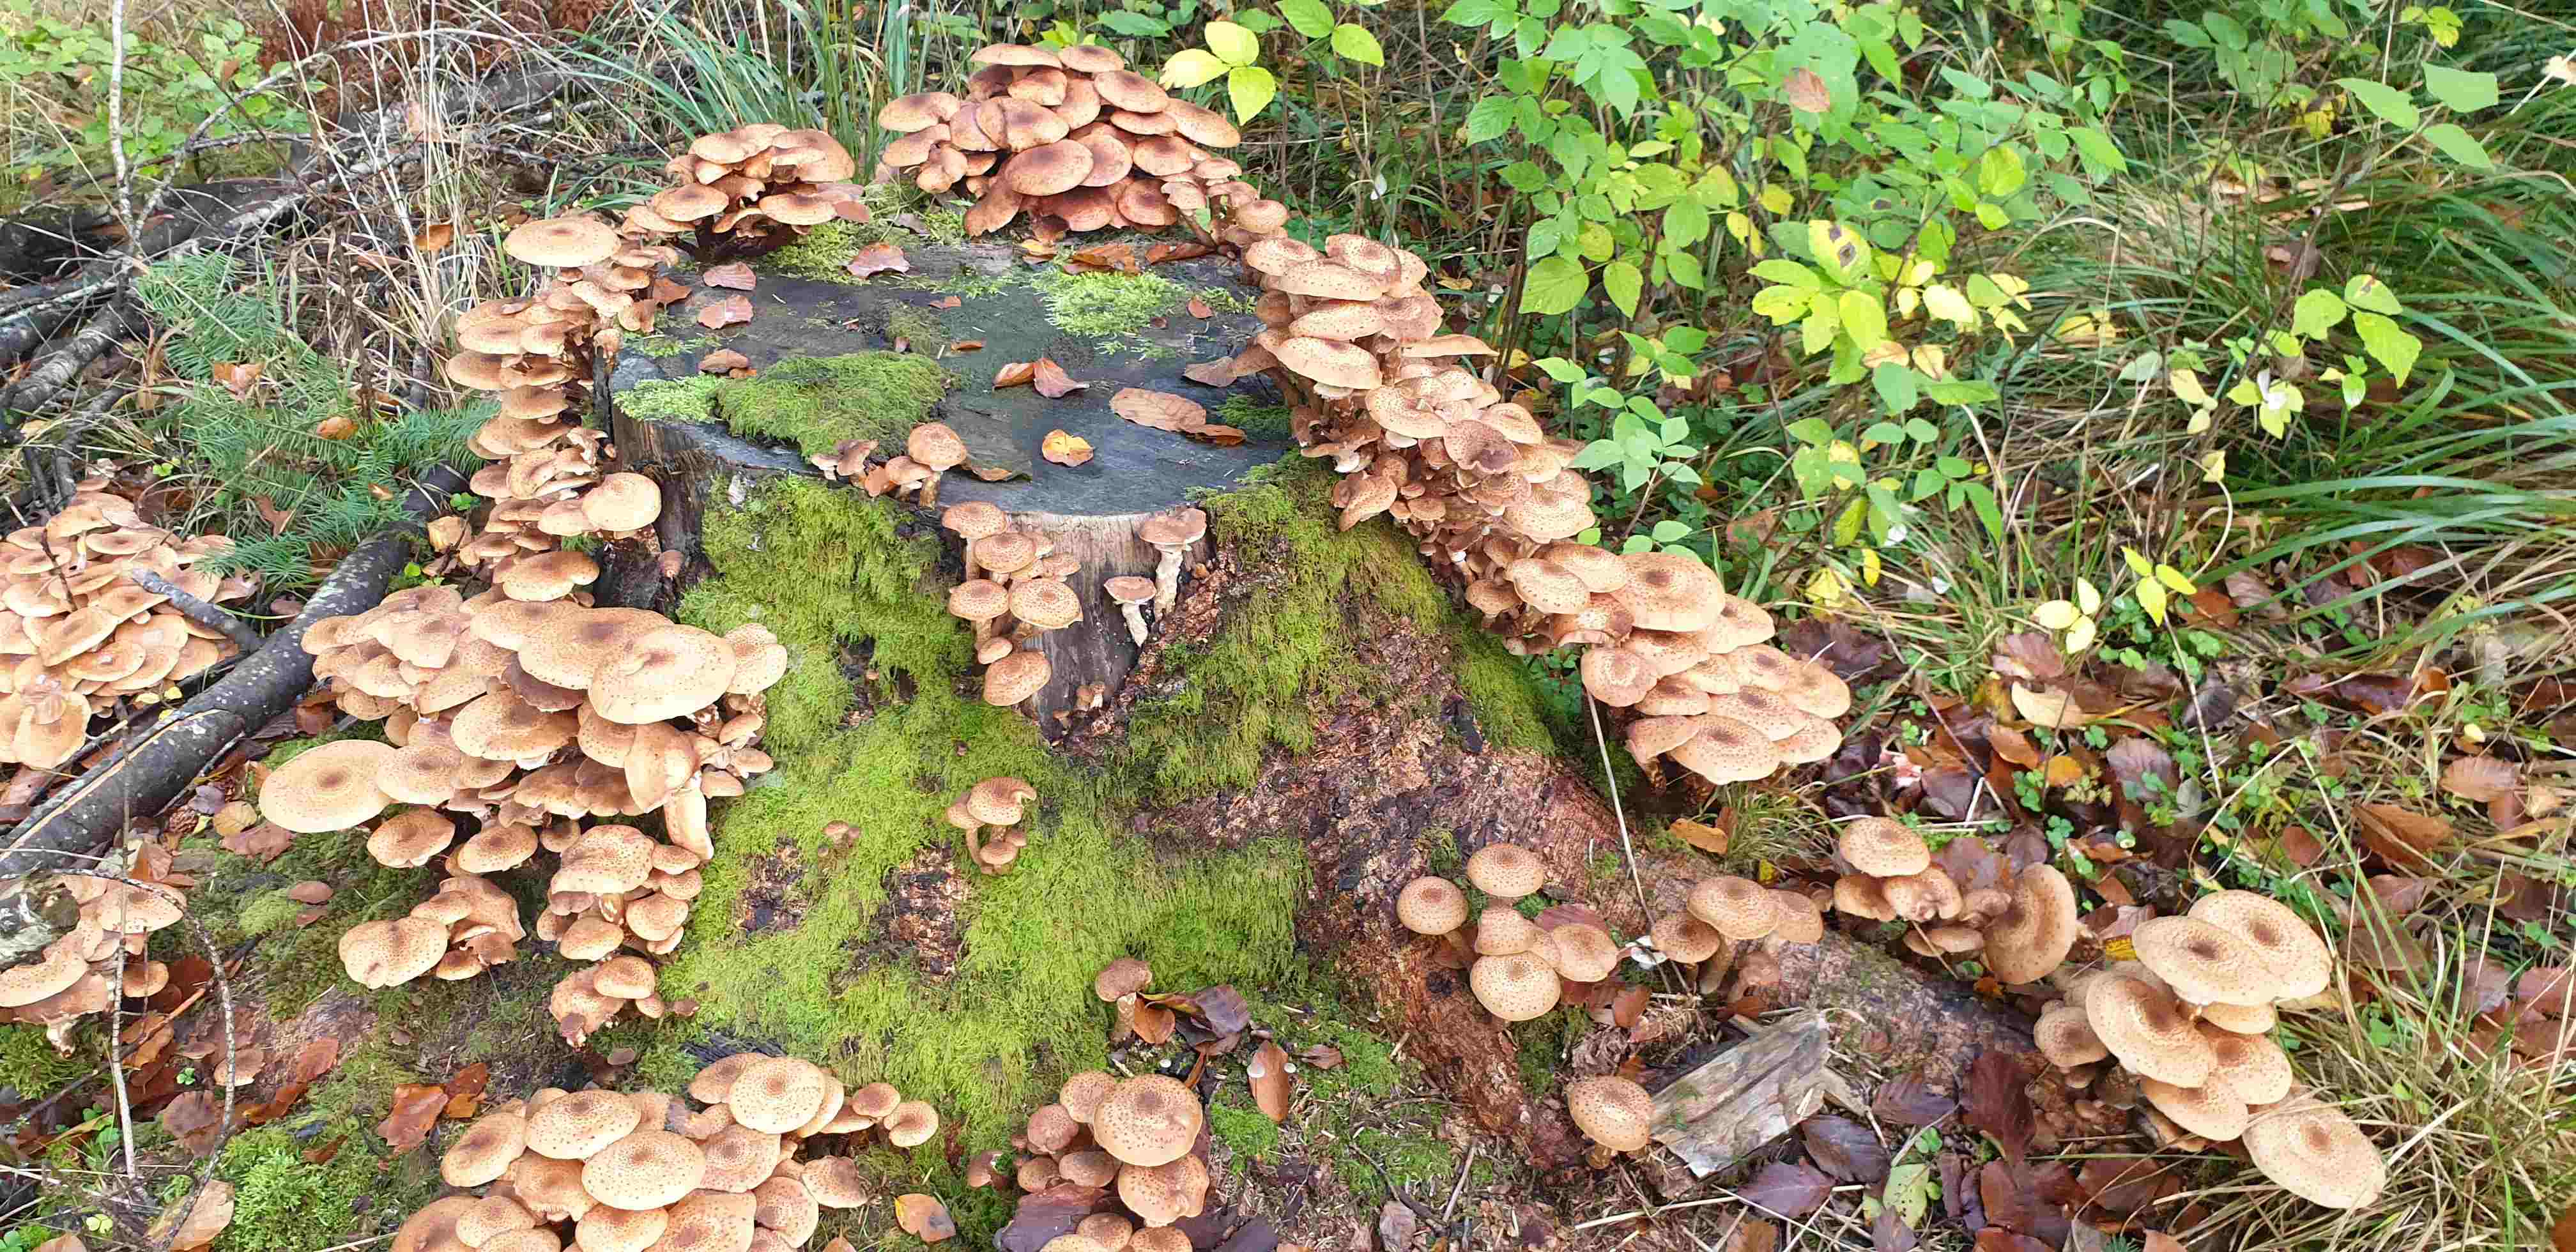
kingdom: Fungi
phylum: Basidiomycota
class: Agaricomycetes
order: Agaricales
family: Physalacriaceae
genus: Armillaria
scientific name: Armillaria
